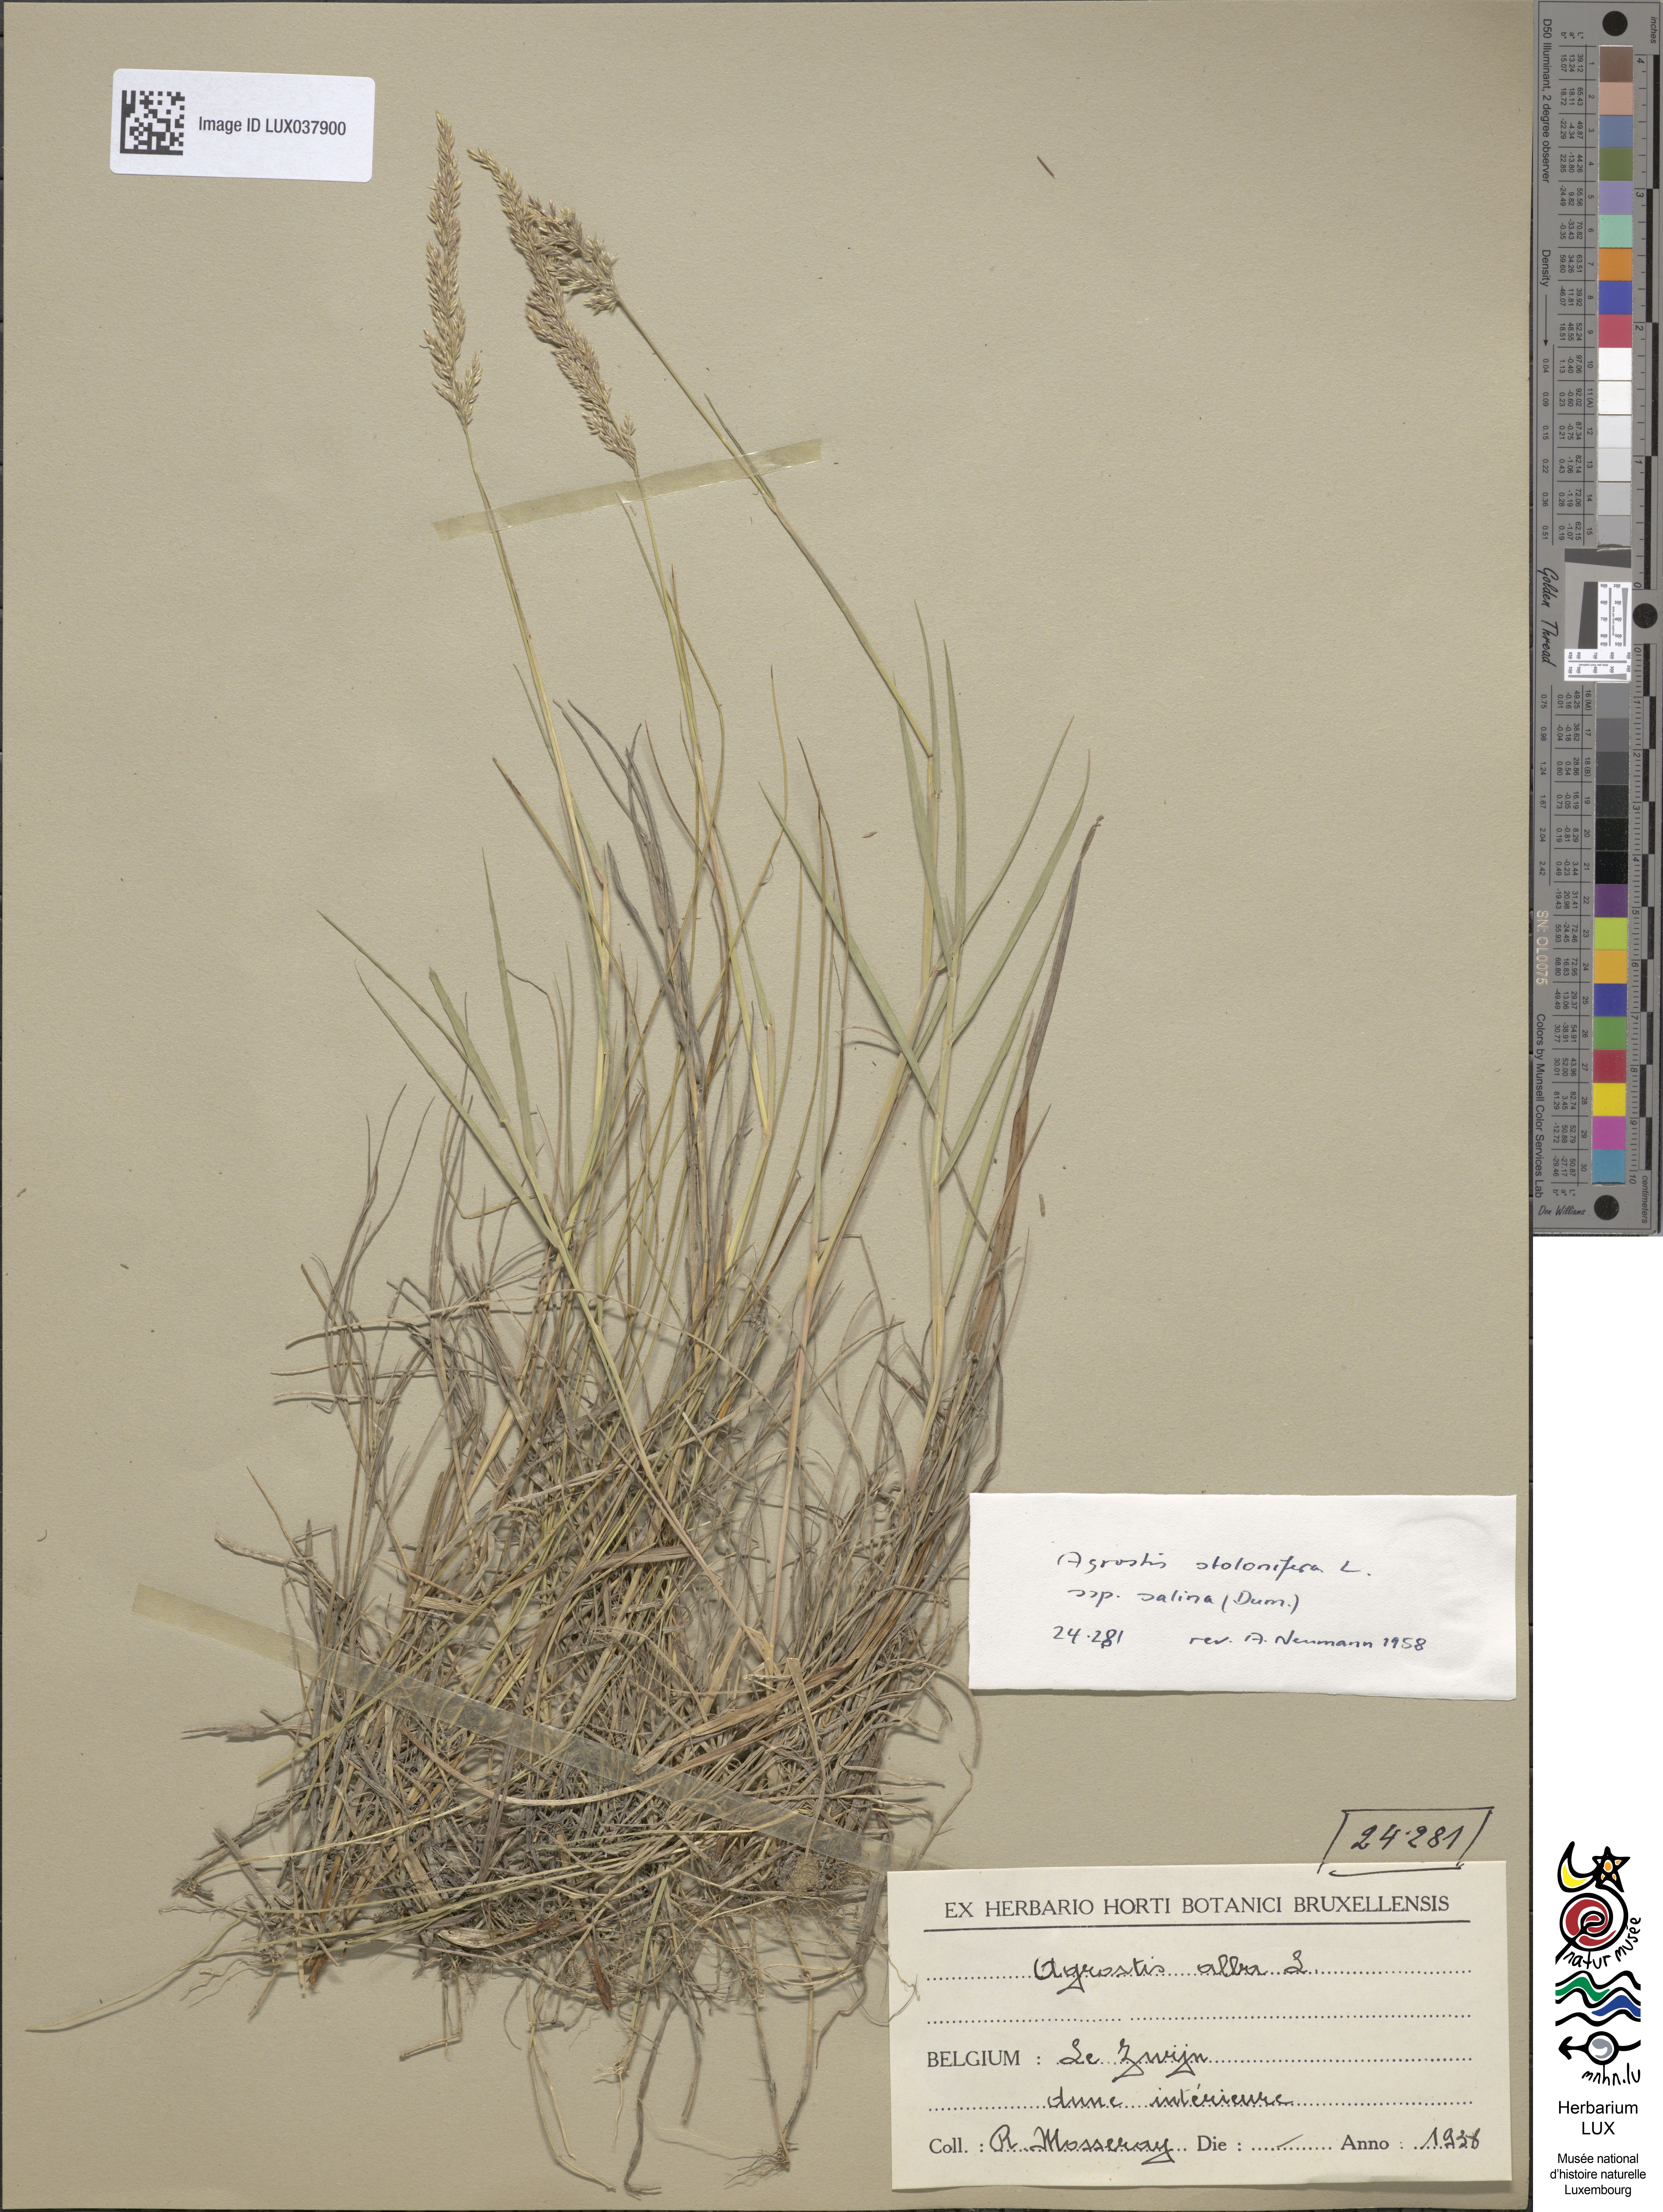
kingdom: Plantae
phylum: Tracheophyta
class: Liliopsida
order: Poales
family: Poaceae
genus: Poa
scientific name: Poa nemoralis
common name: Wood bluegrass
